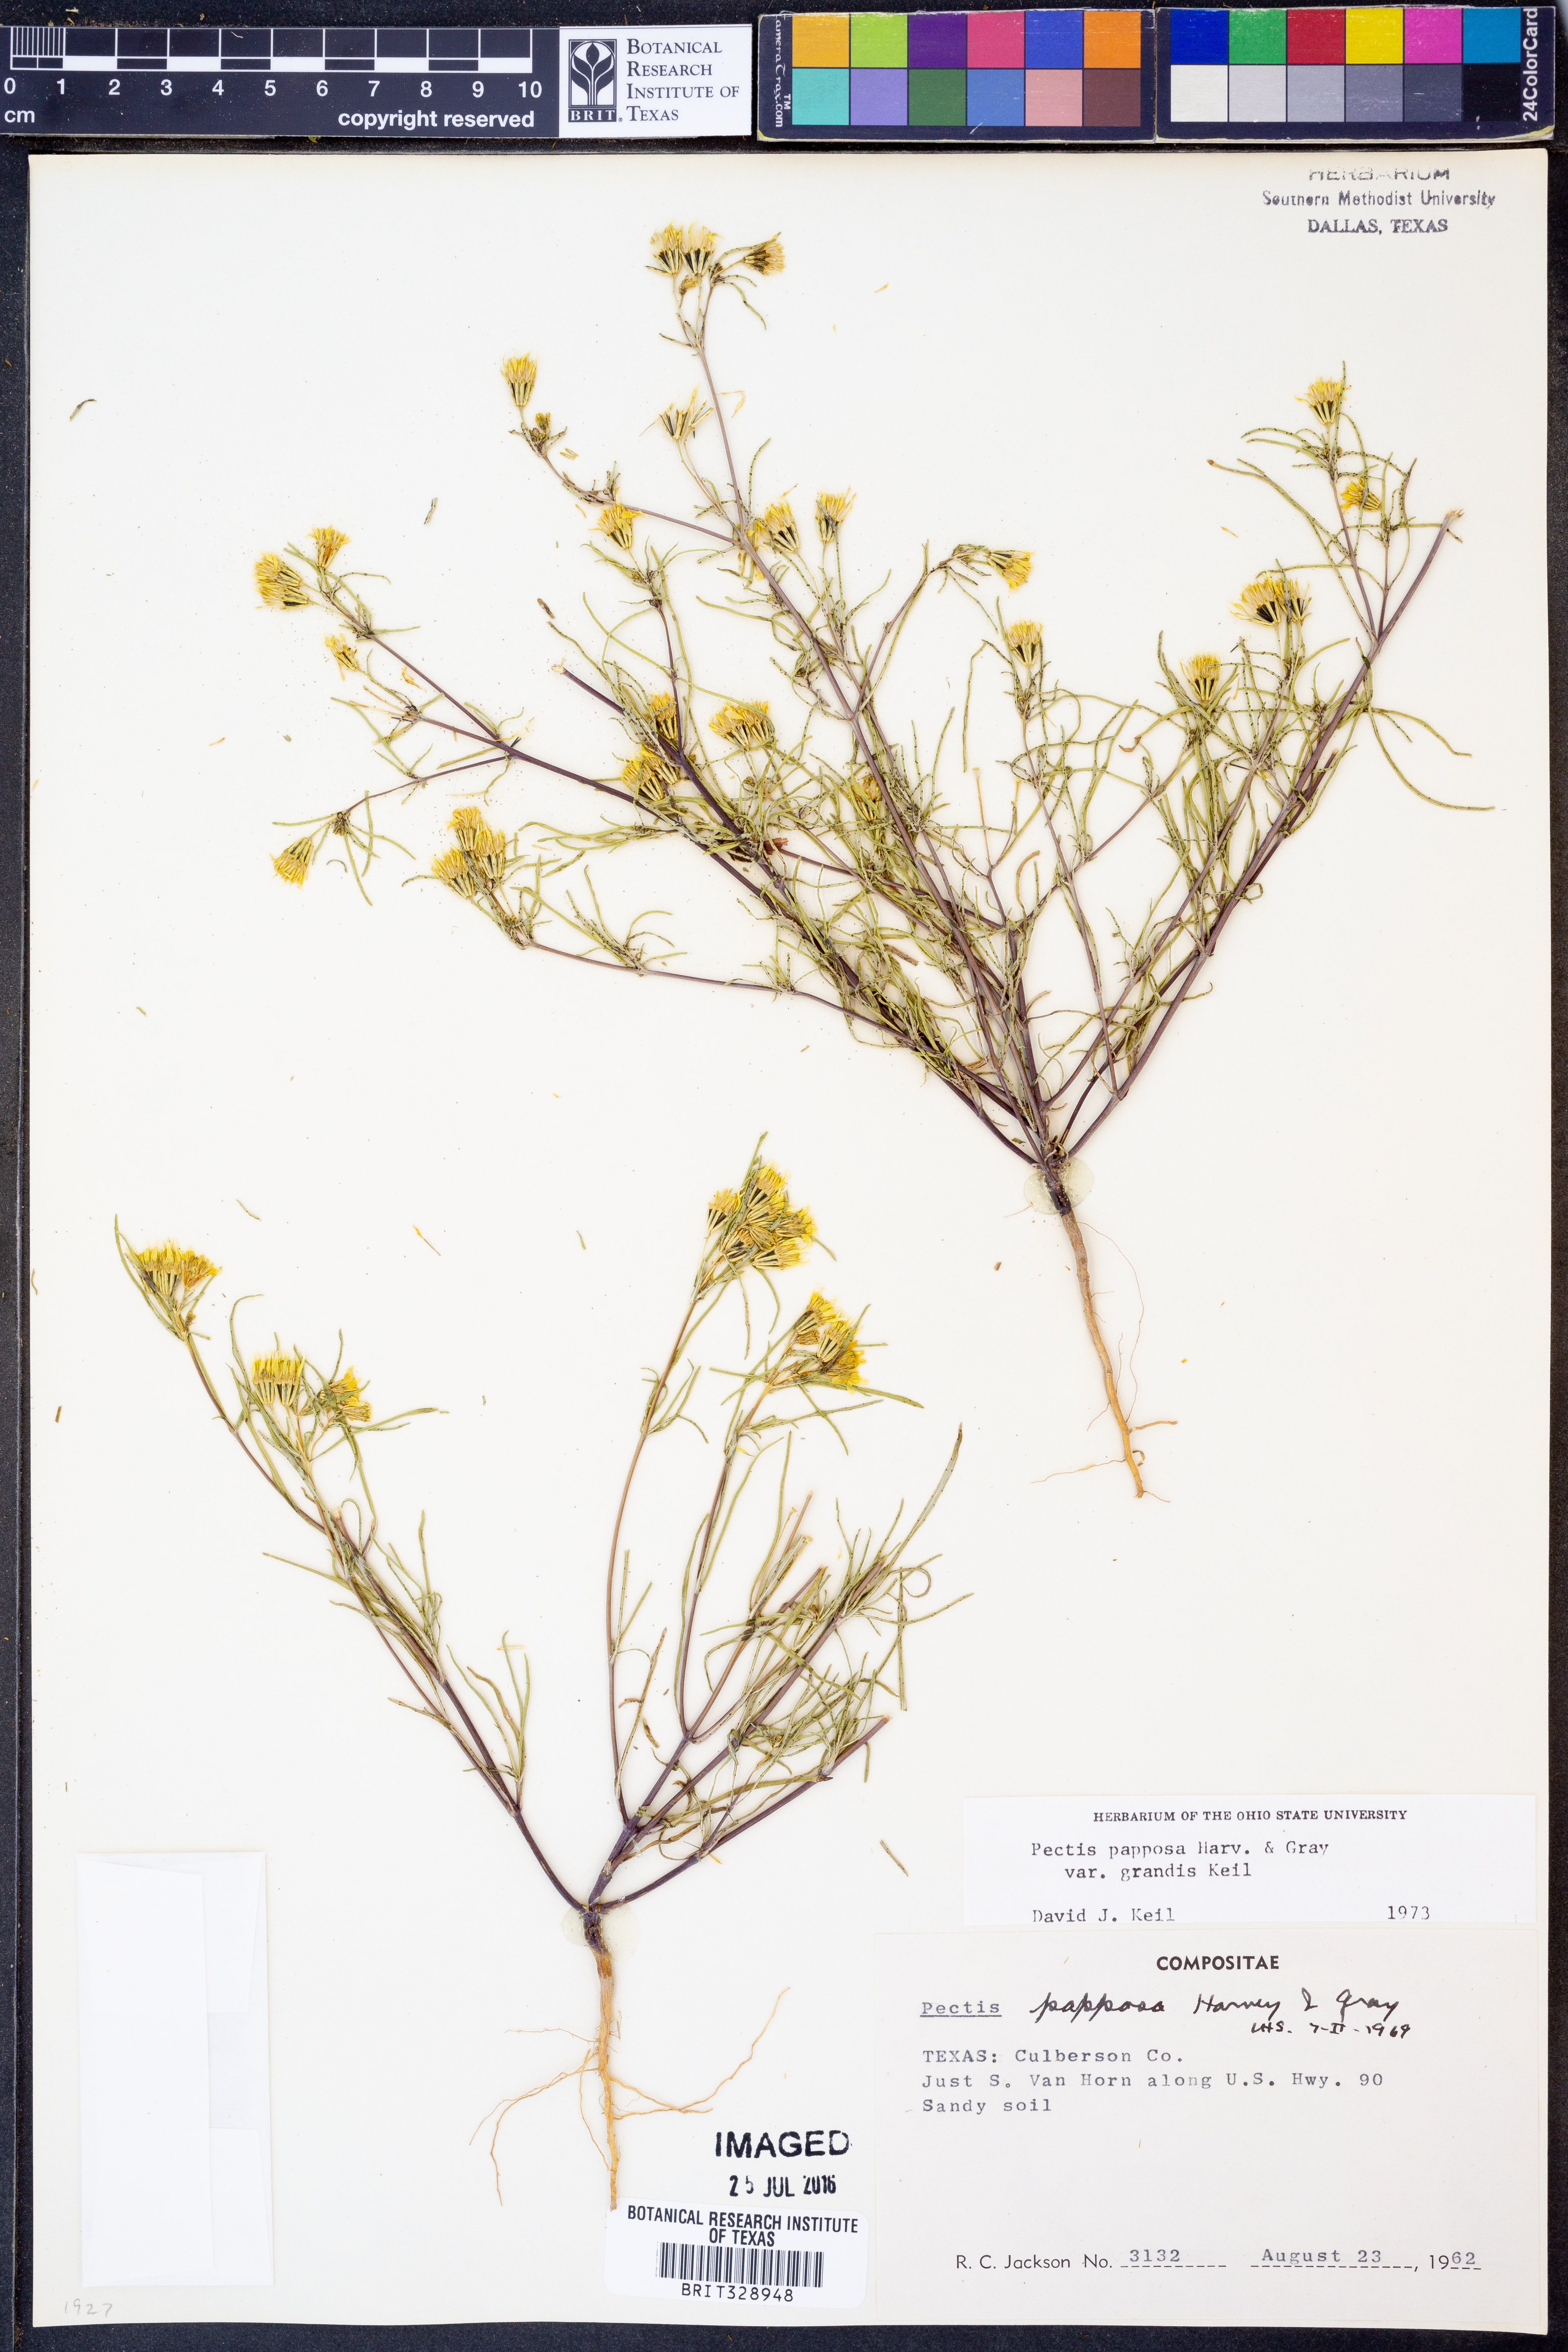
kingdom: Plantae
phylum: Tracheophyta
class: Magnoliopsida
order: Asterales
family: Asteraceae
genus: Pectis
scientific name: Pectis papposa
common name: Many-bristle chinchweed
